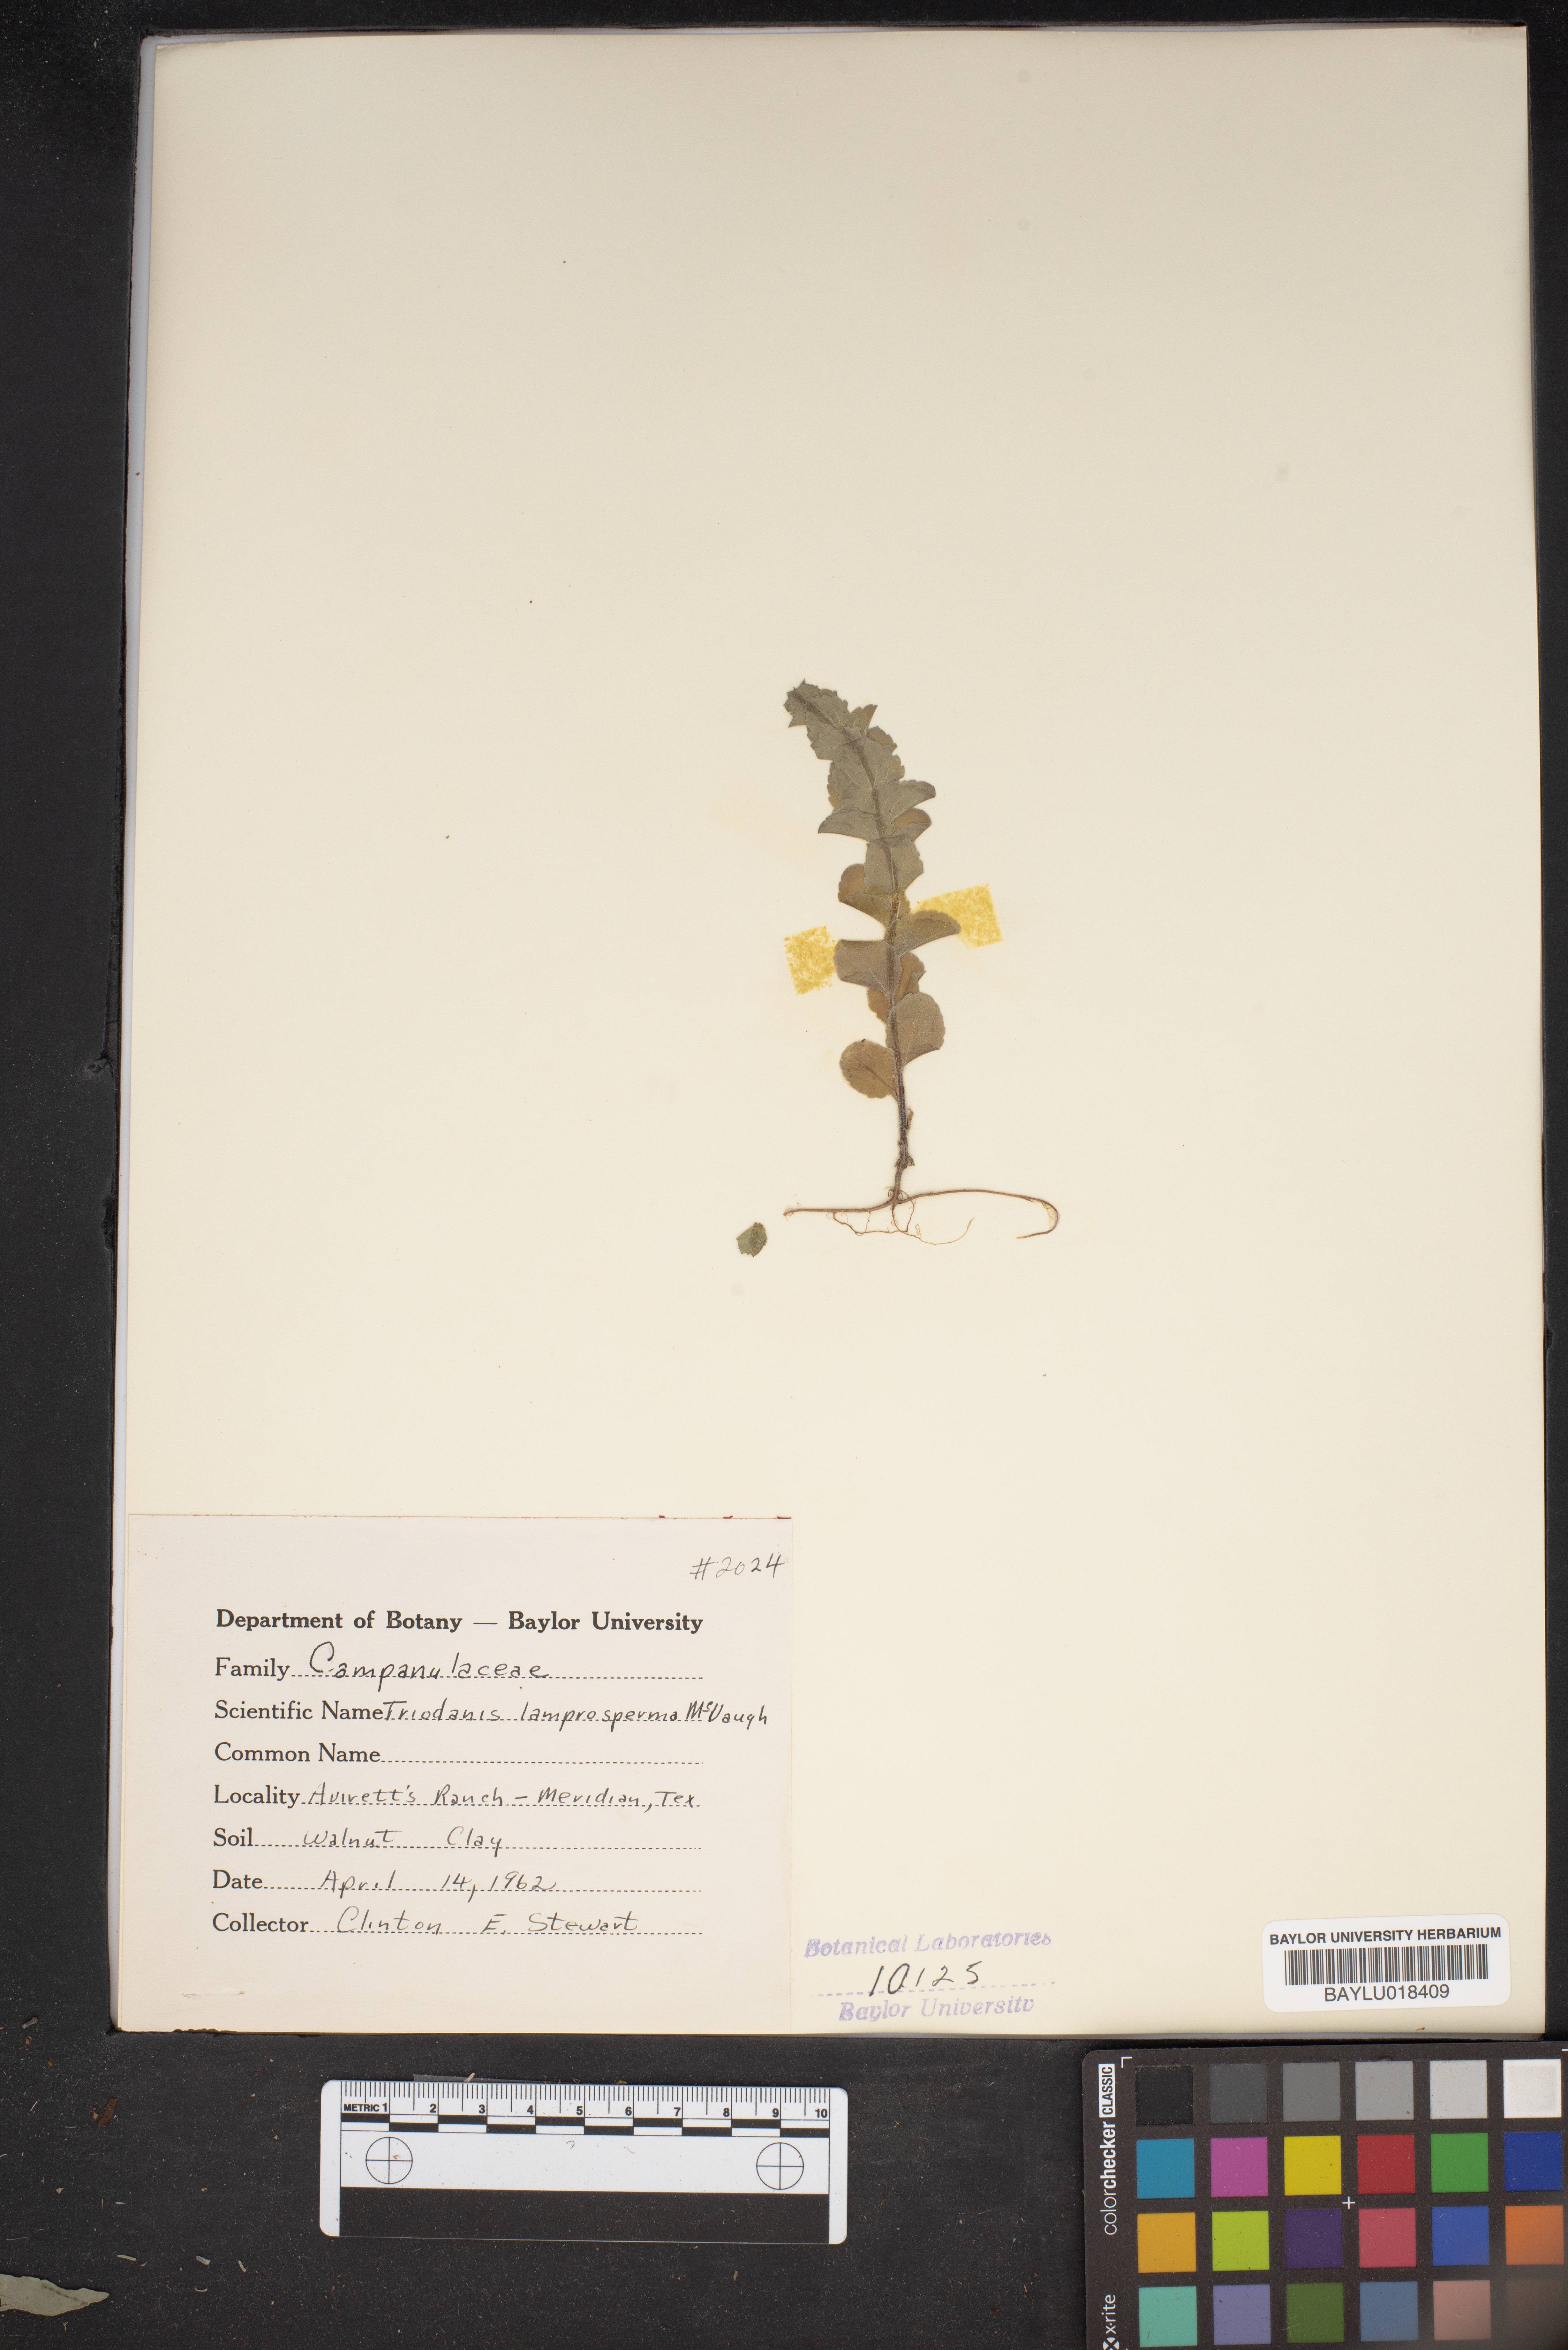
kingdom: Plantae
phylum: Tracheophyta
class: Magnoliopsida
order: Asterales
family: Campanulaceae
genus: Triodanis
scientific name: Triodanis lamprosperma
